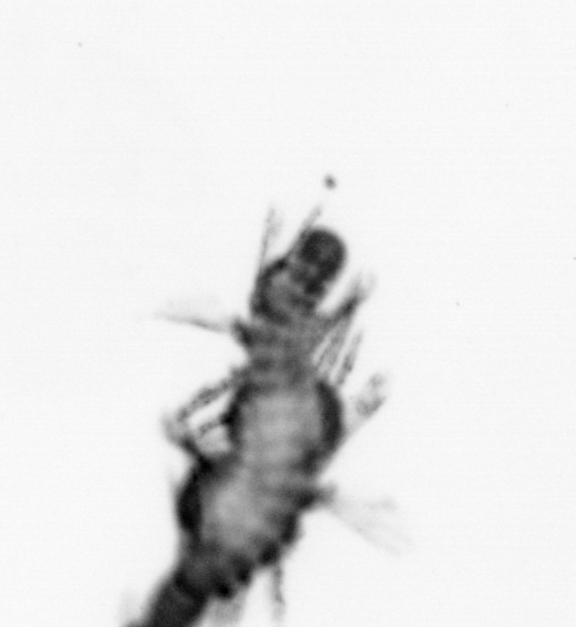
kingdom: Animalia
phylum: Annelida
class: Polychaeta
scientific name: Polychaeta
